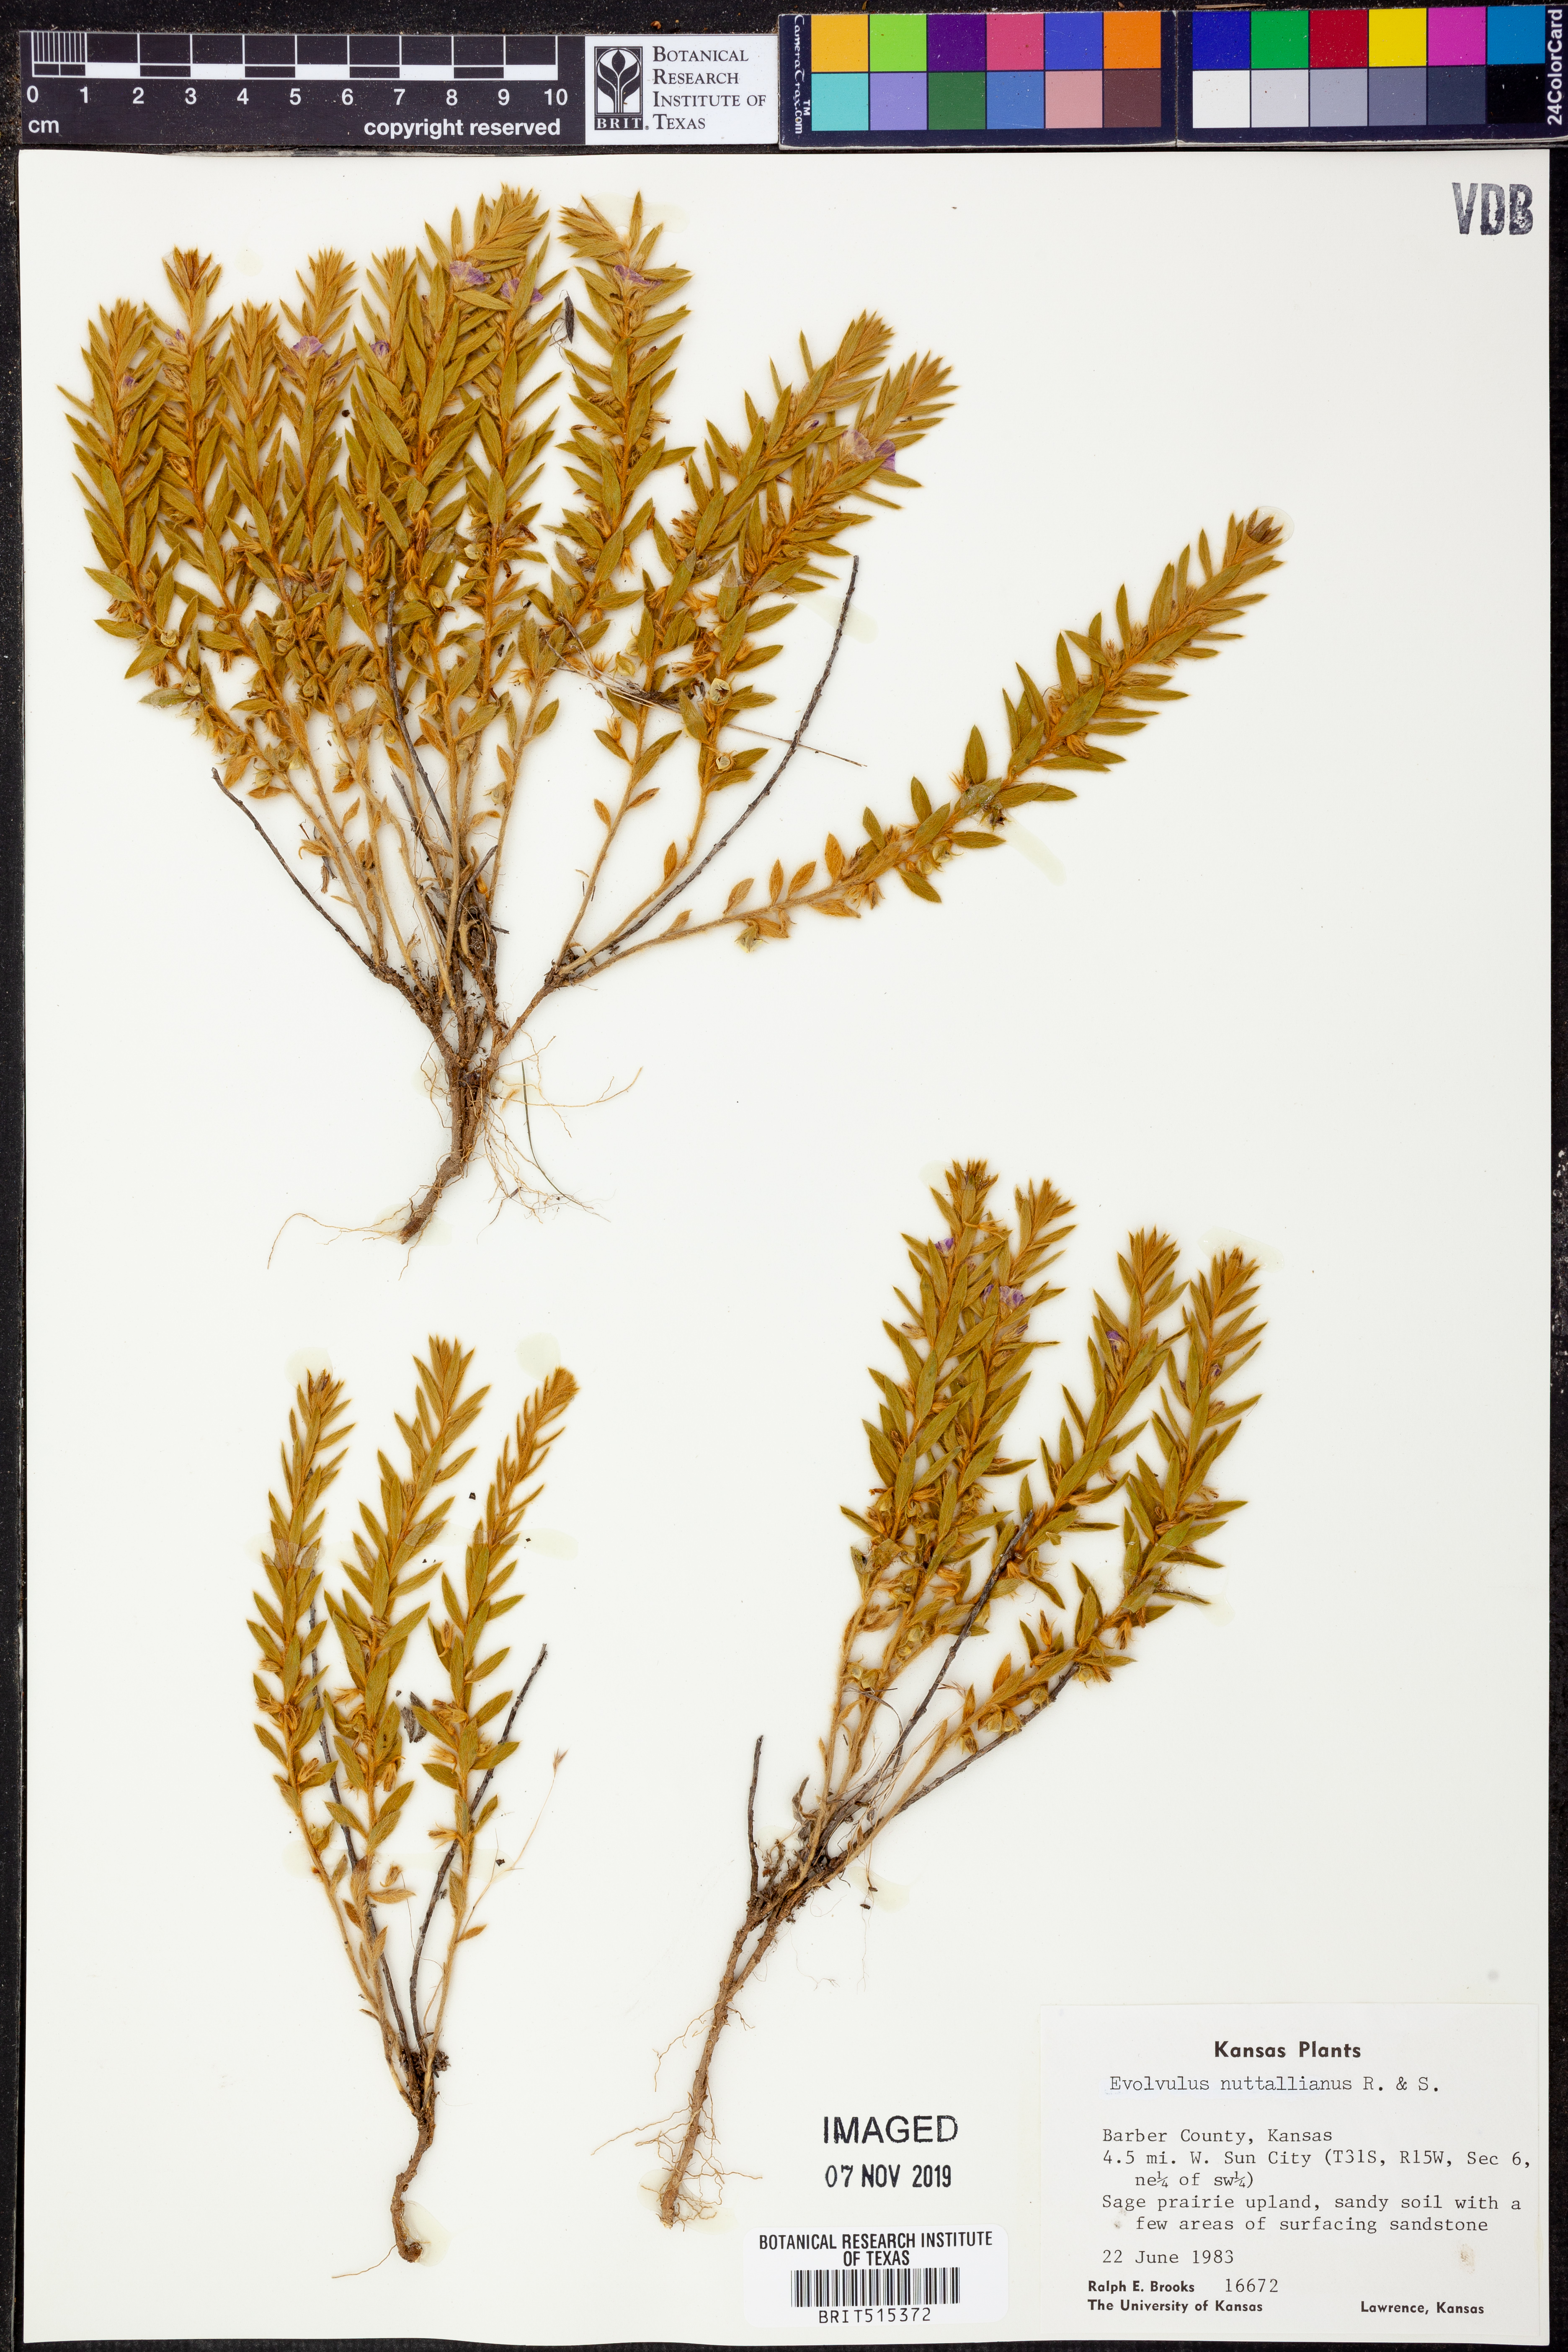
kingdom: Plantae
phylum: Tracheophyta
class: Magnoliopsida
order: Solanales
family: Convolvulaceae
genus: Evolvulus
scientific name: Evolvulus nuttallianus
